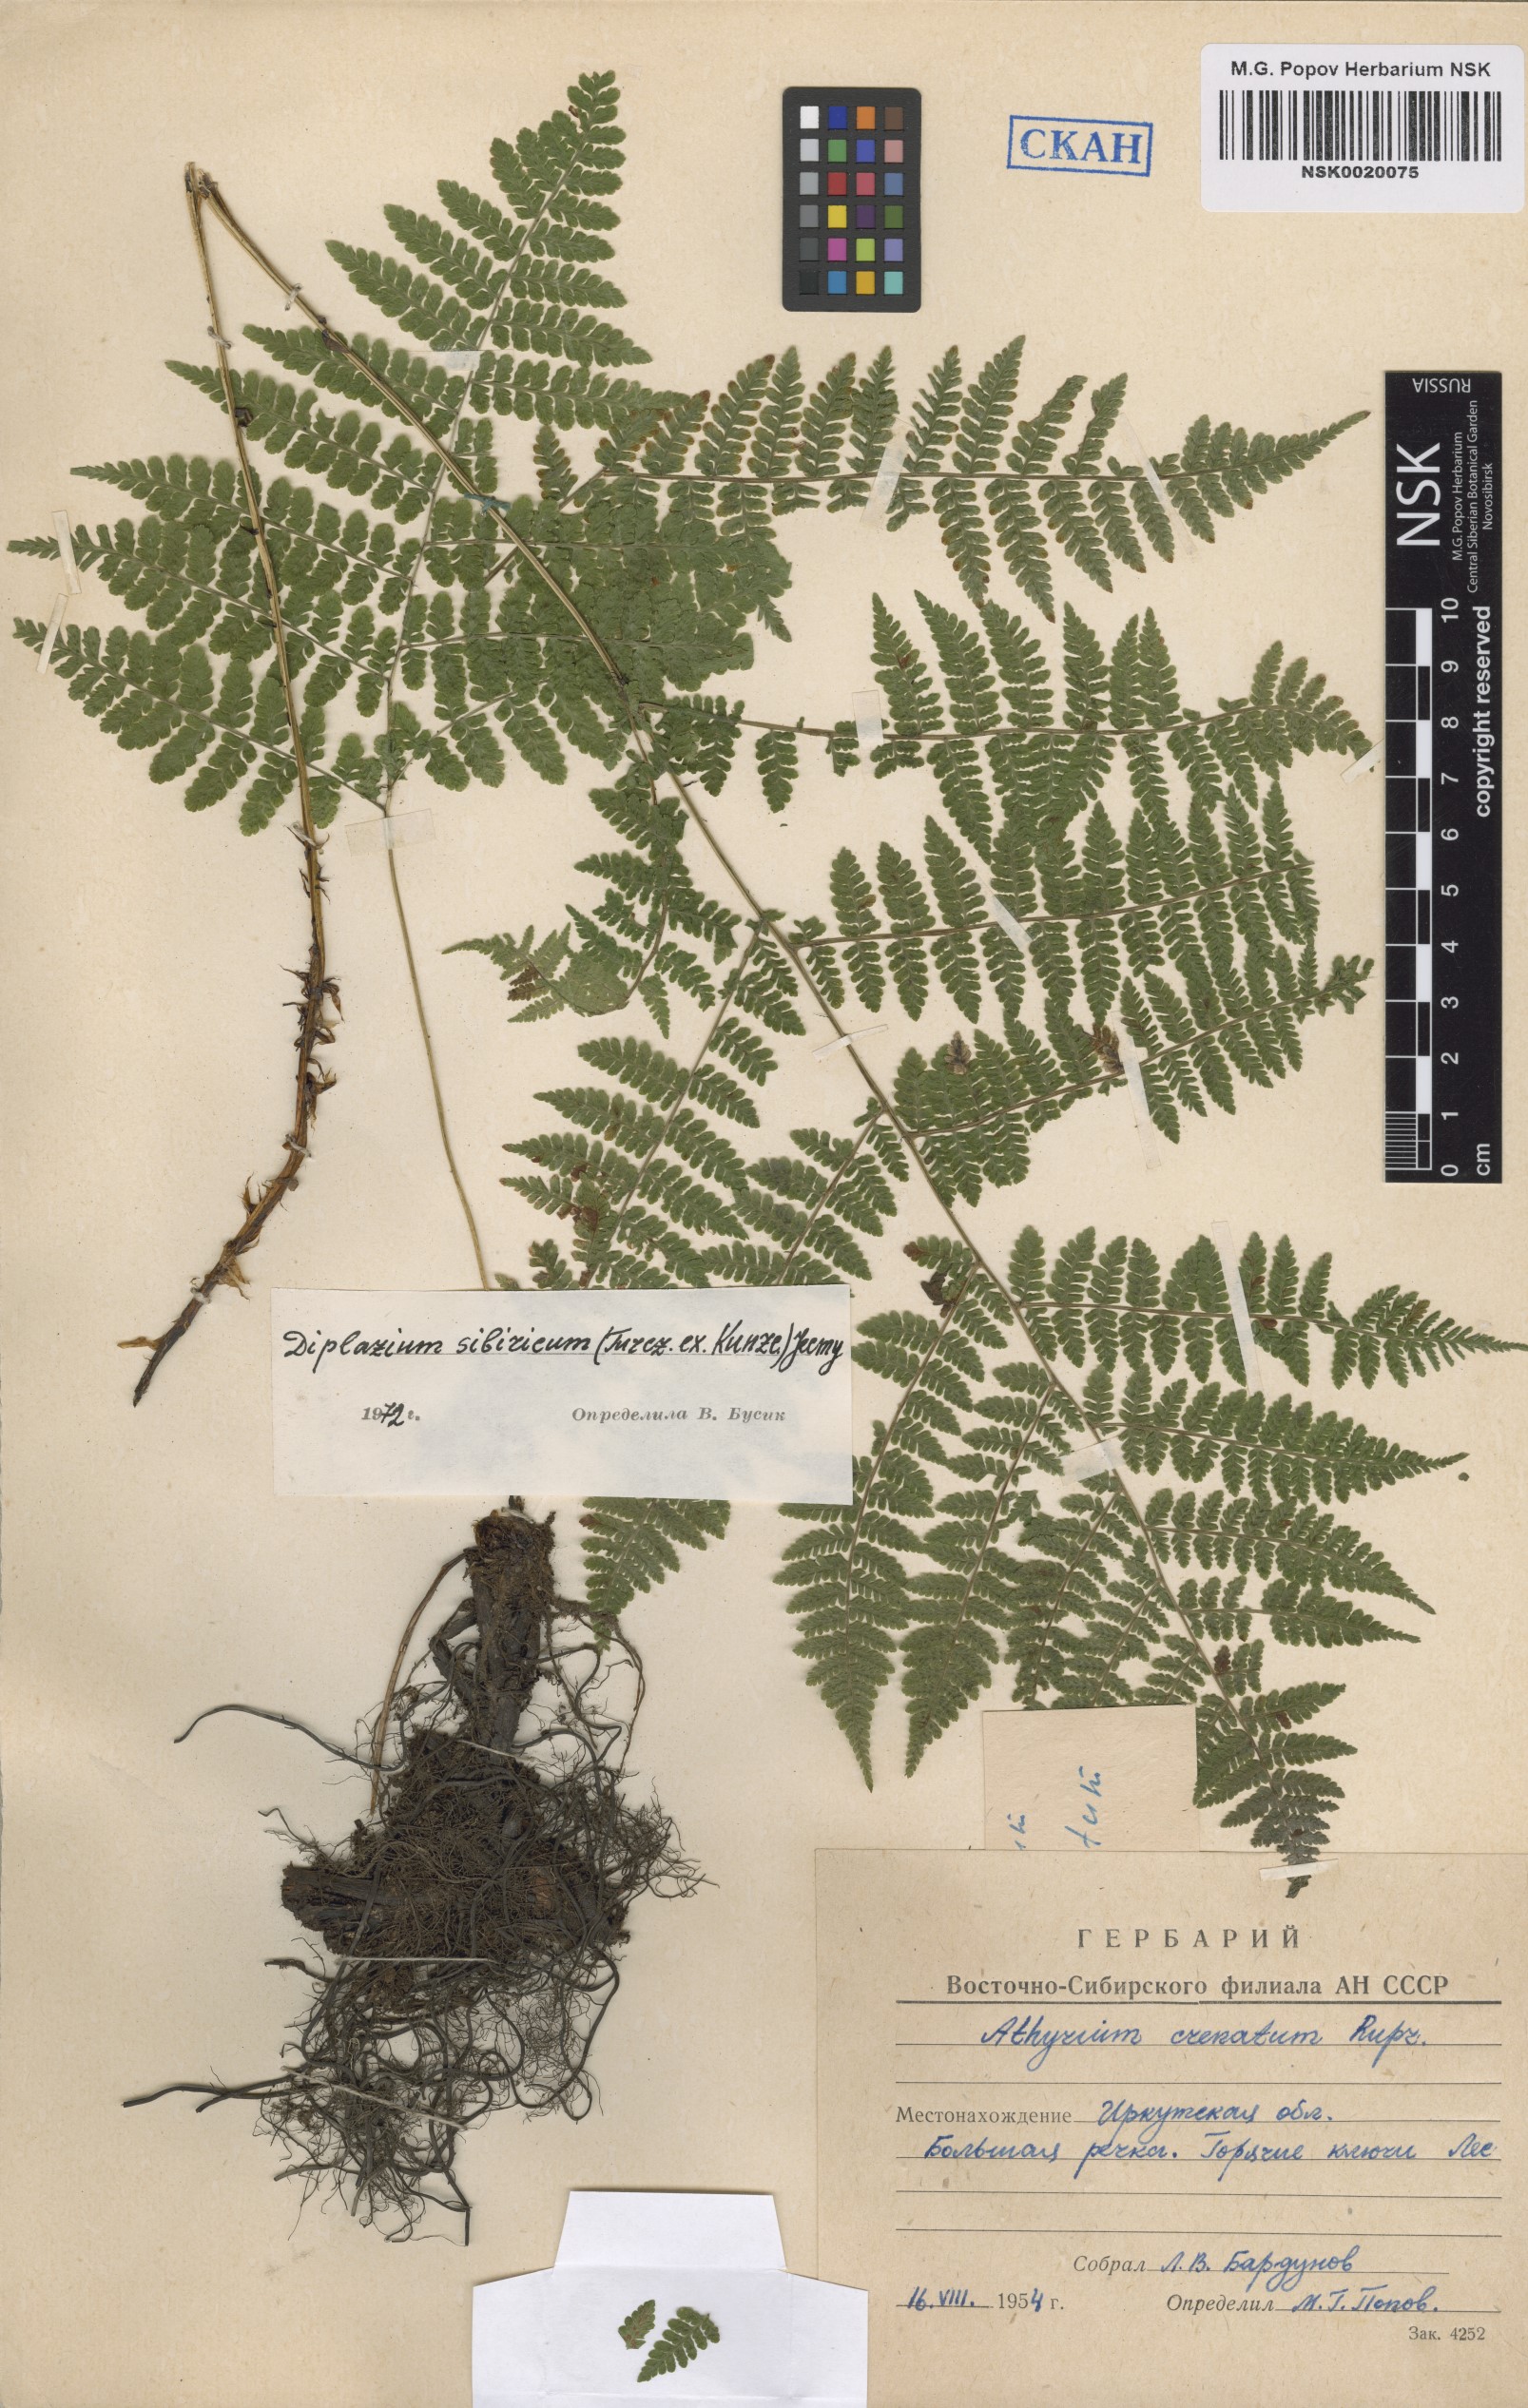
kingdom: Plantae
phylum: Tracheophyta
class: Polypodiopsida
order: Polypodiales
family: Athyriaceae
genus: Diplazium
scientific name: Diplazium sibiricum
